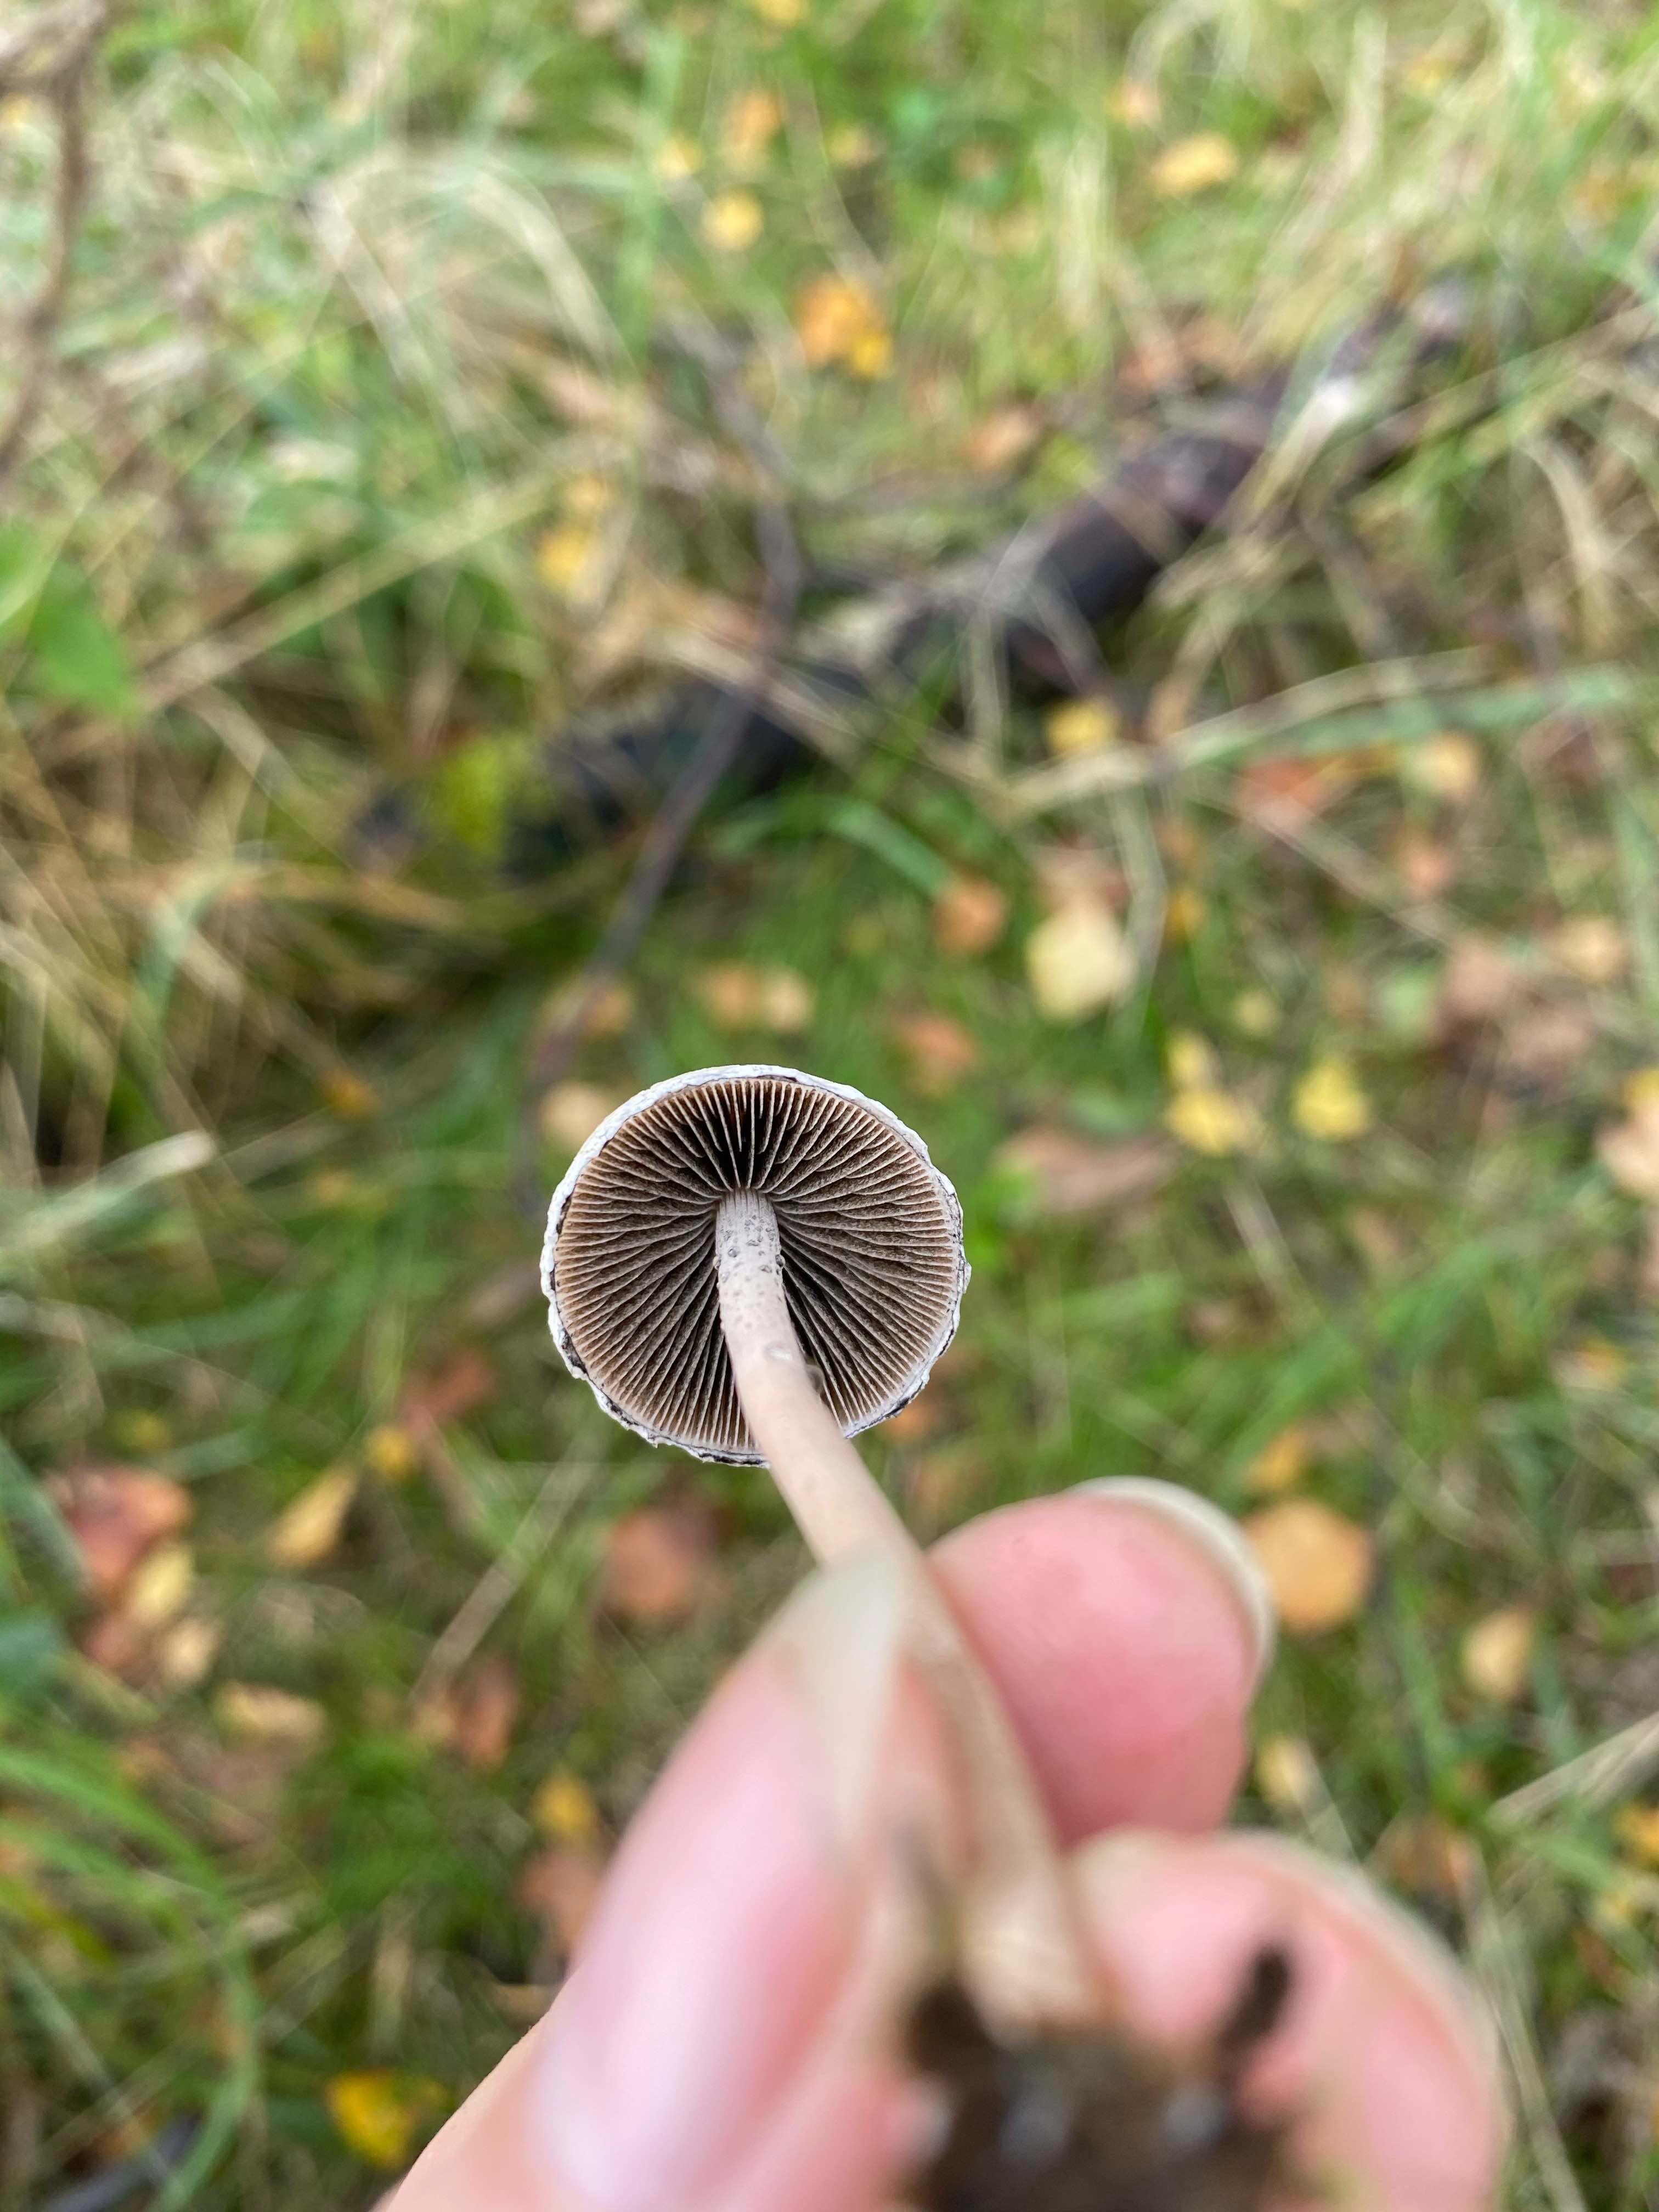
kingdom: Fungi
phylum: Basidiomycota
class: Agaricomycetes
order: Agaricales
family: Bolbitiaceae
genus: Panaeolus
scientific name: Panaeolus papilionaceus
